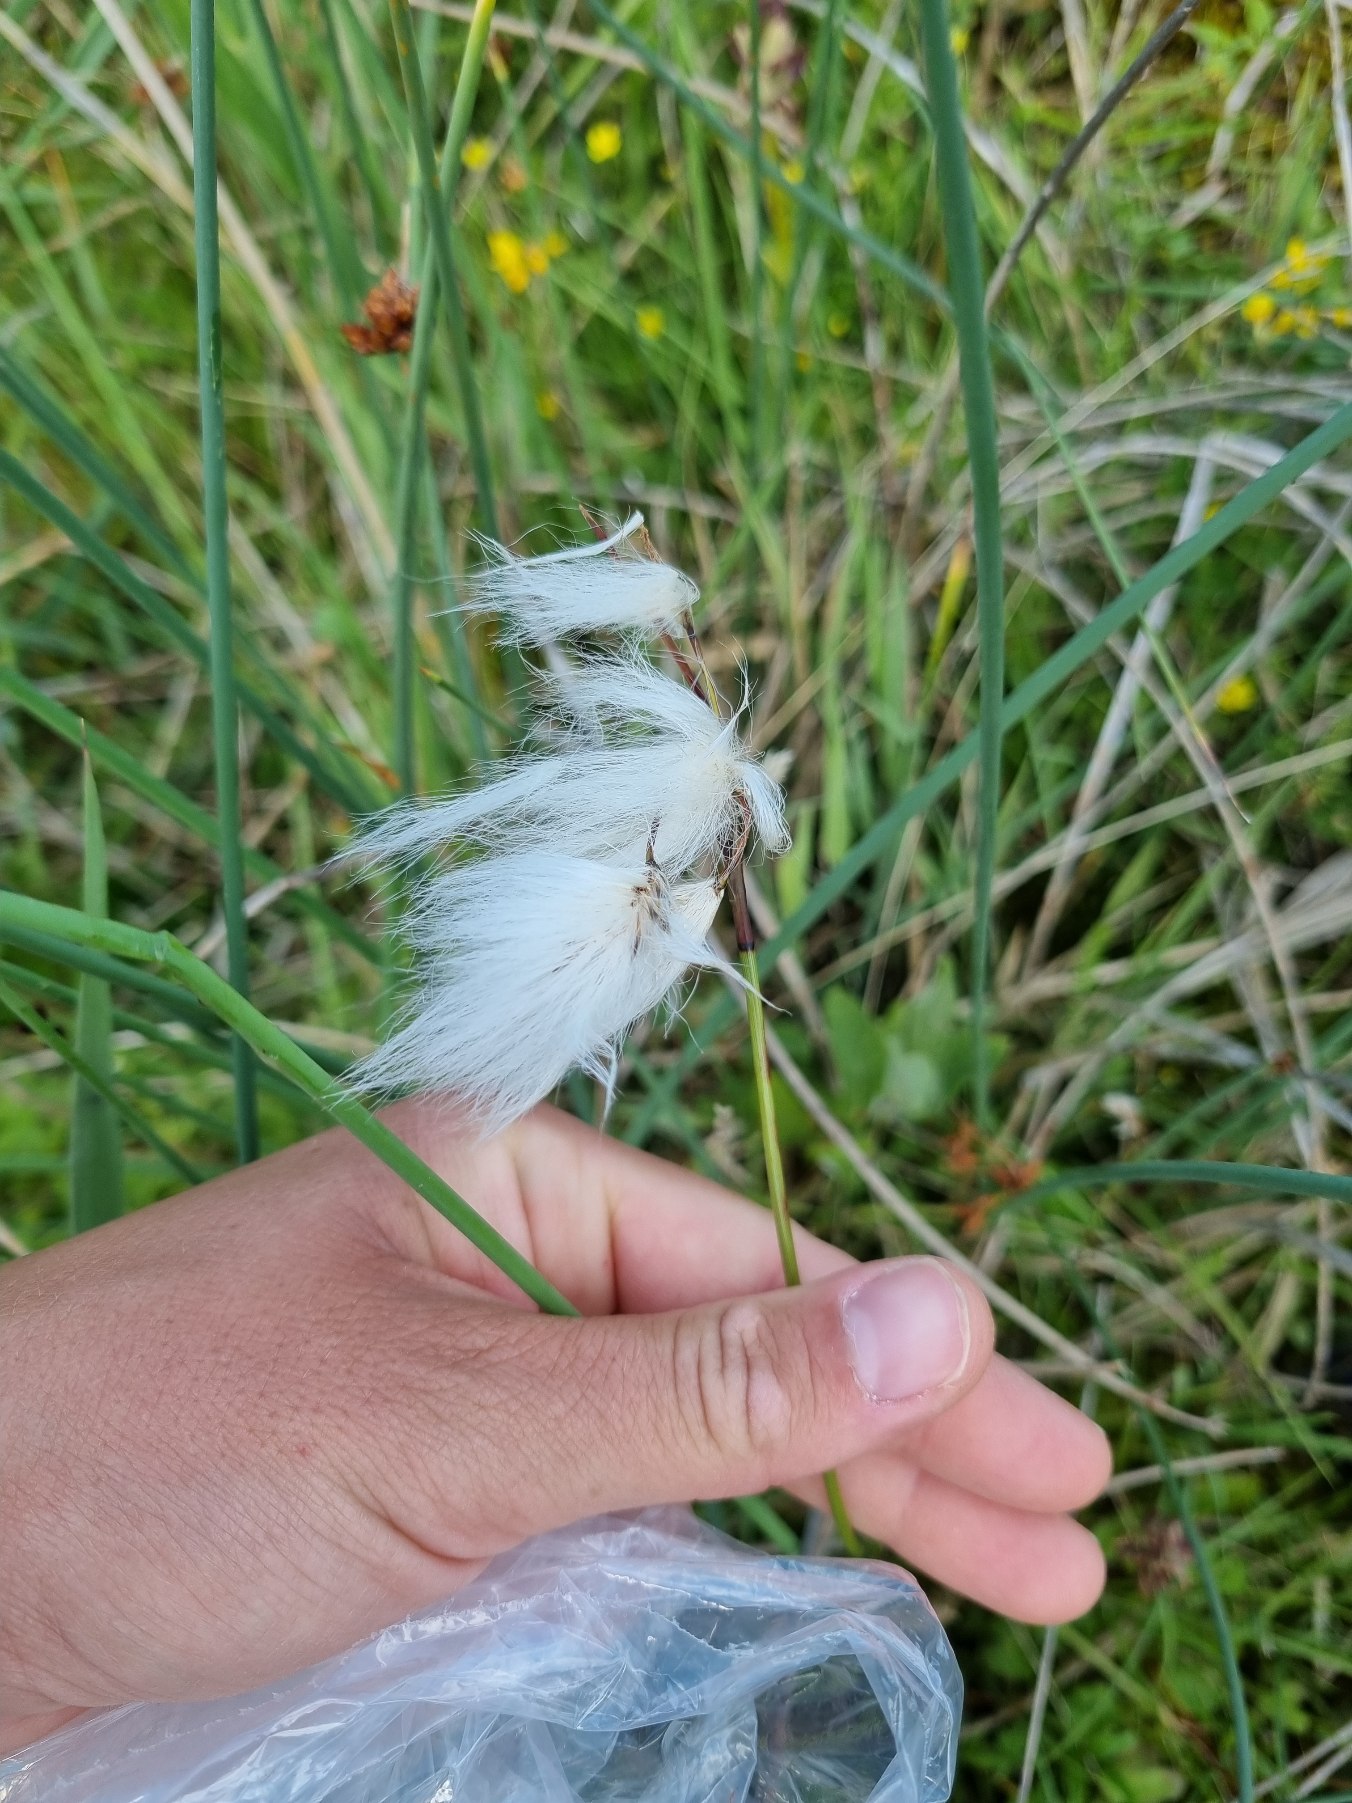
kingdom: Plantae
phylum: Tracheophyta
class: Liliopsida
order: Poales
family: Cyperaceae
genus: Eriophorum
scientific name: Eriophorum angustifolium
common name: Smalbladet kæruld
